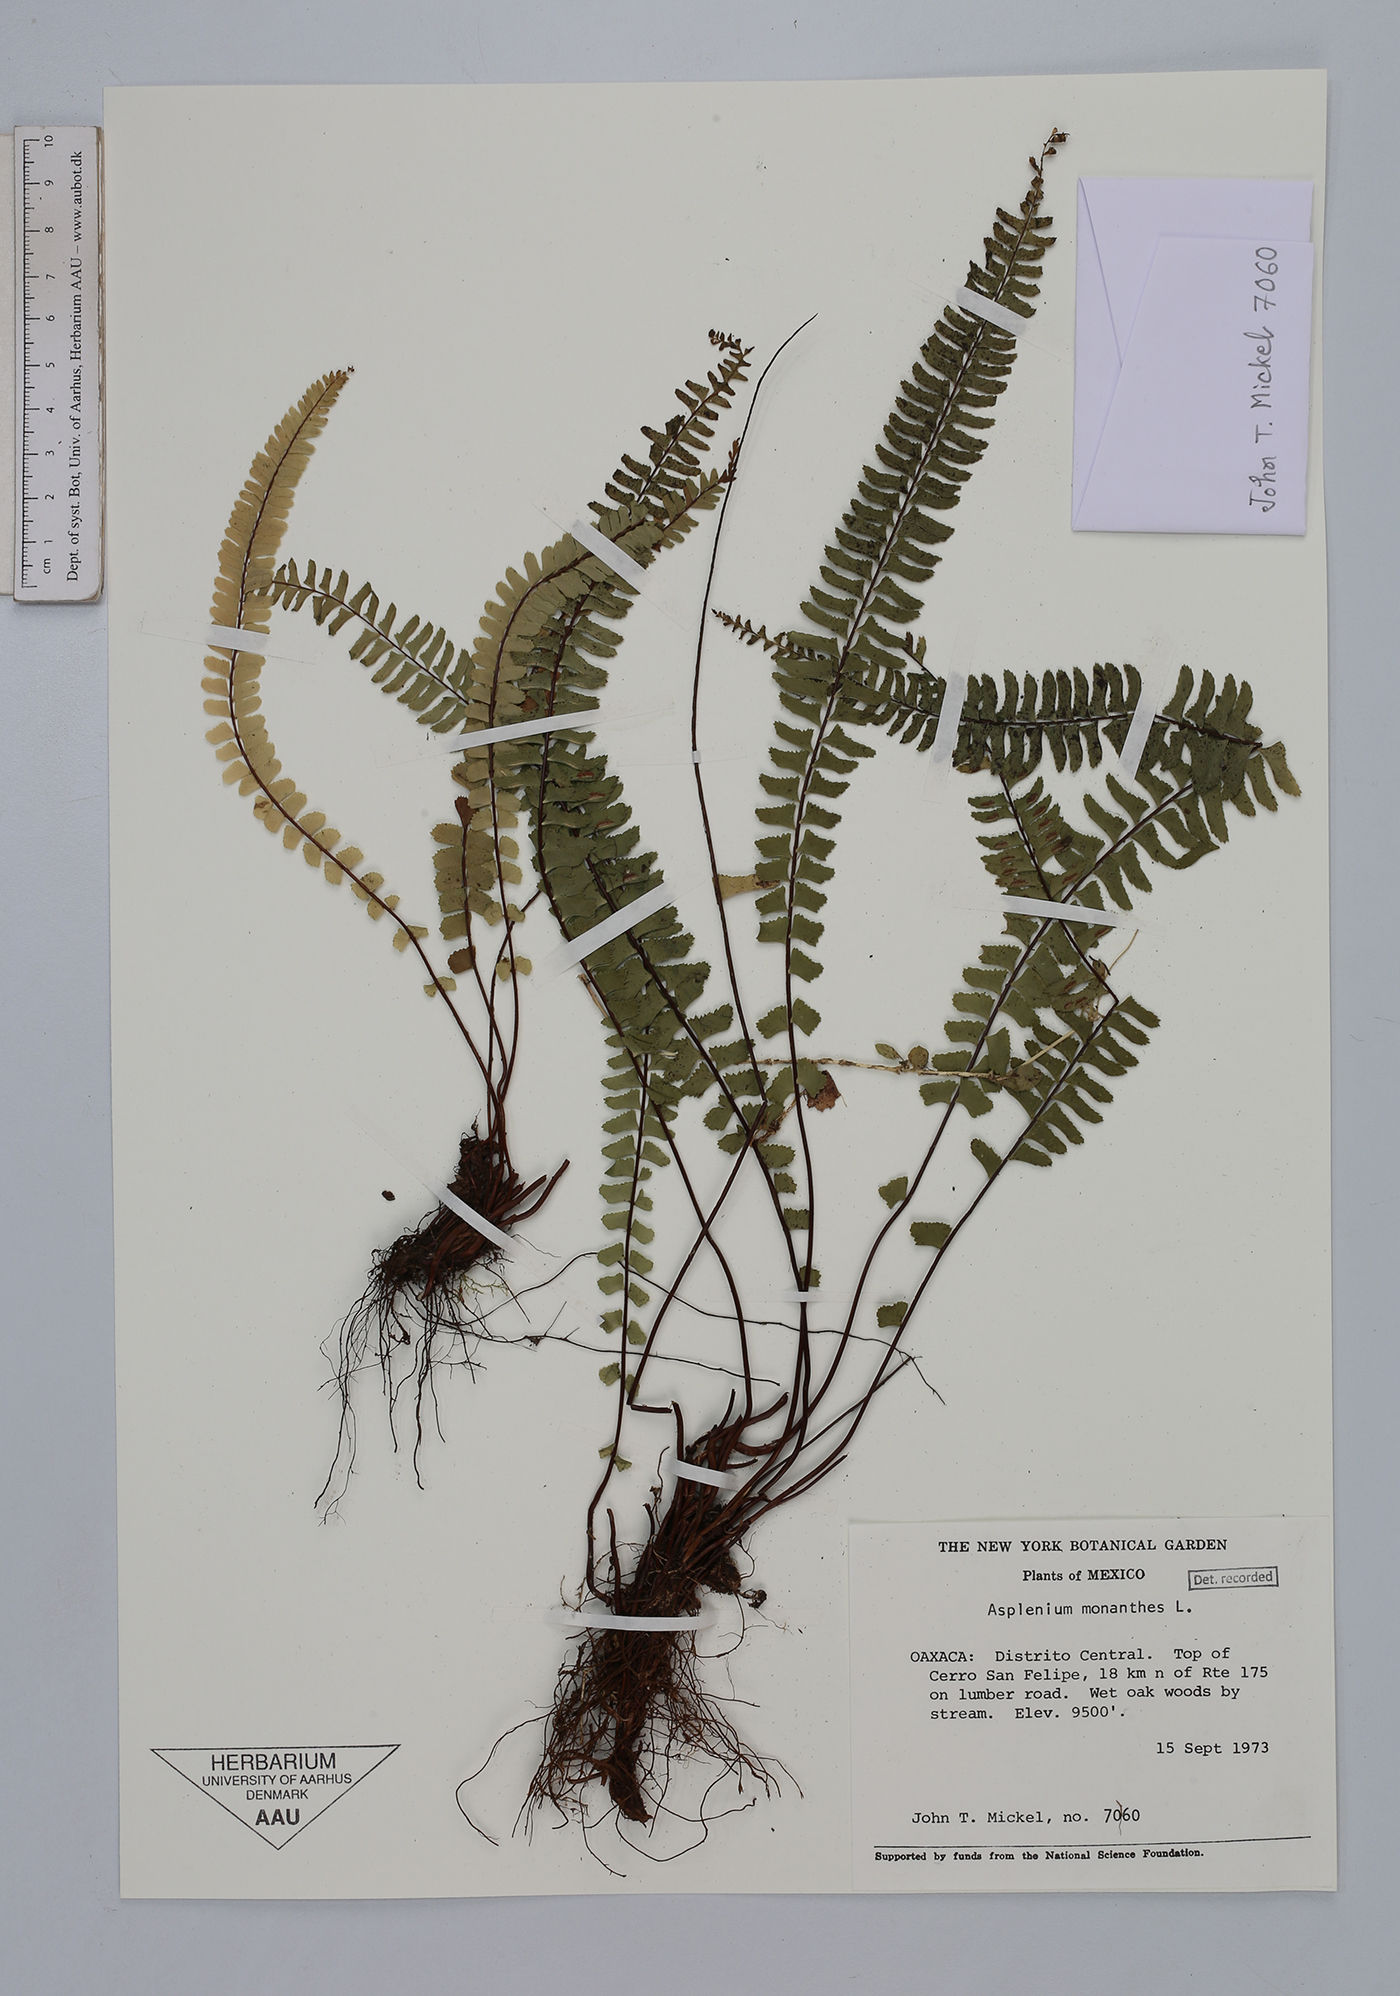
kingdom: Plantae
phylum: Tracheophyta
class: Polypodiopsida
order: Polypodiales
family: Aspleniaceae
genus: Asplenium
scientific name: Asplenium monanthes
